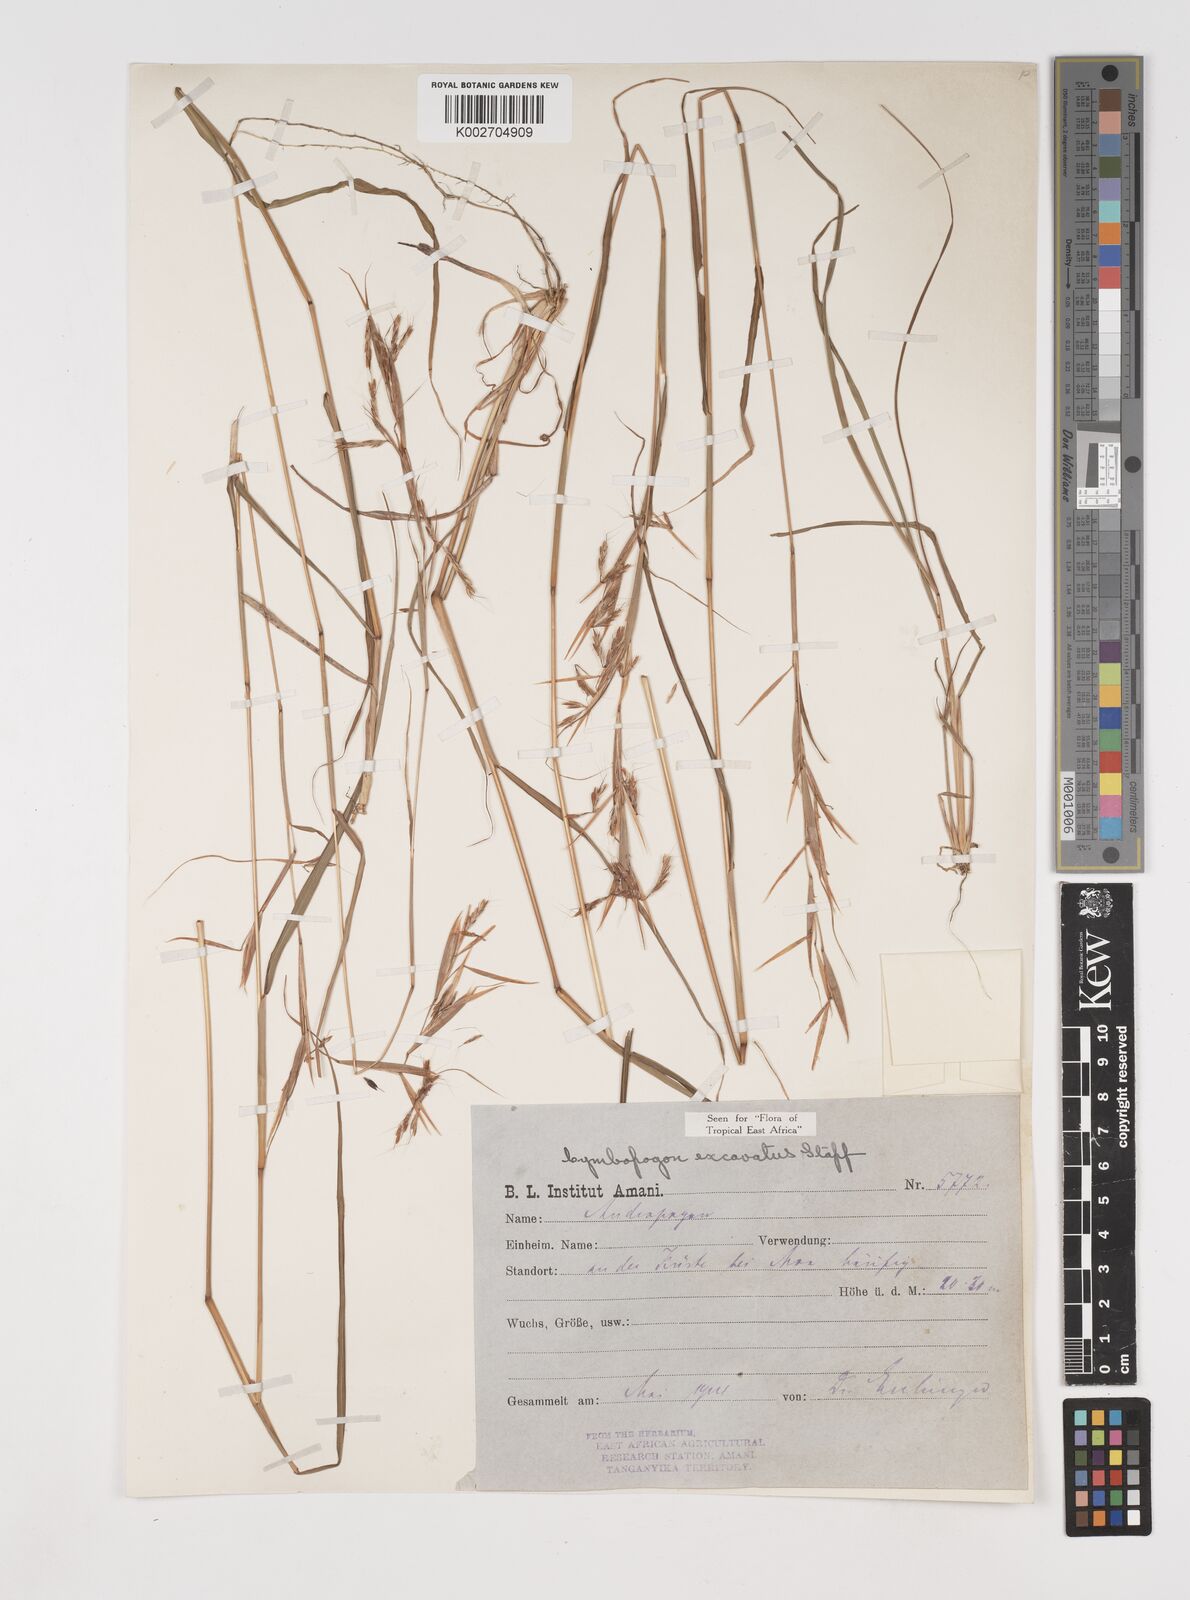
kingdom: Plantae
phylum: Tracheophyta
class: Liliopsida
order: Poales
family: Poaceae
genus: Cymbopogon
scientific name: Cymbopogon caesius
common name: Kachi grass
